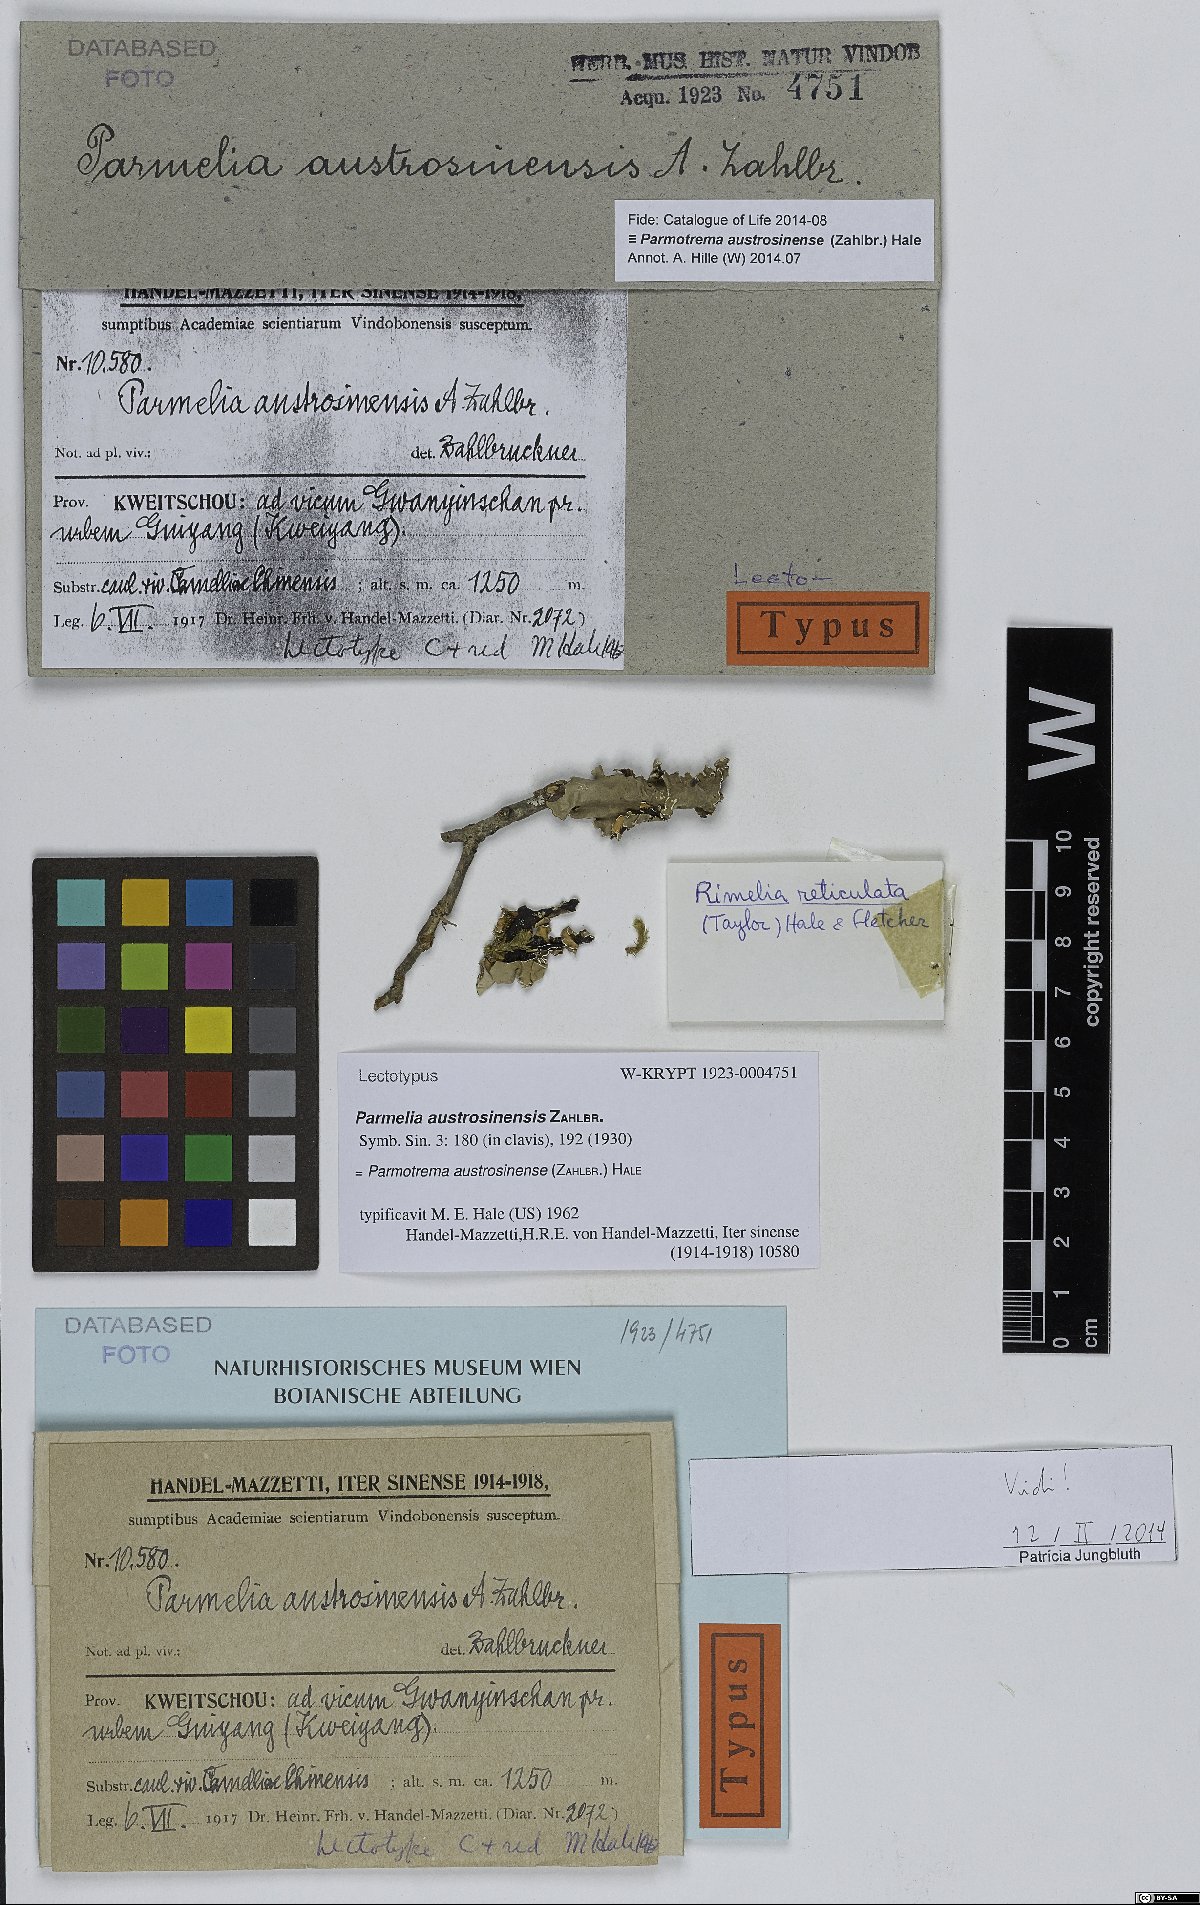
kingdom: Fungi
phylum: Ascomycota
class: Lecanoromycetes
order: Lecanorales
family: Parmeliaceae
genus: Parmotrema
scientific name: Parmotrema austrosinense
